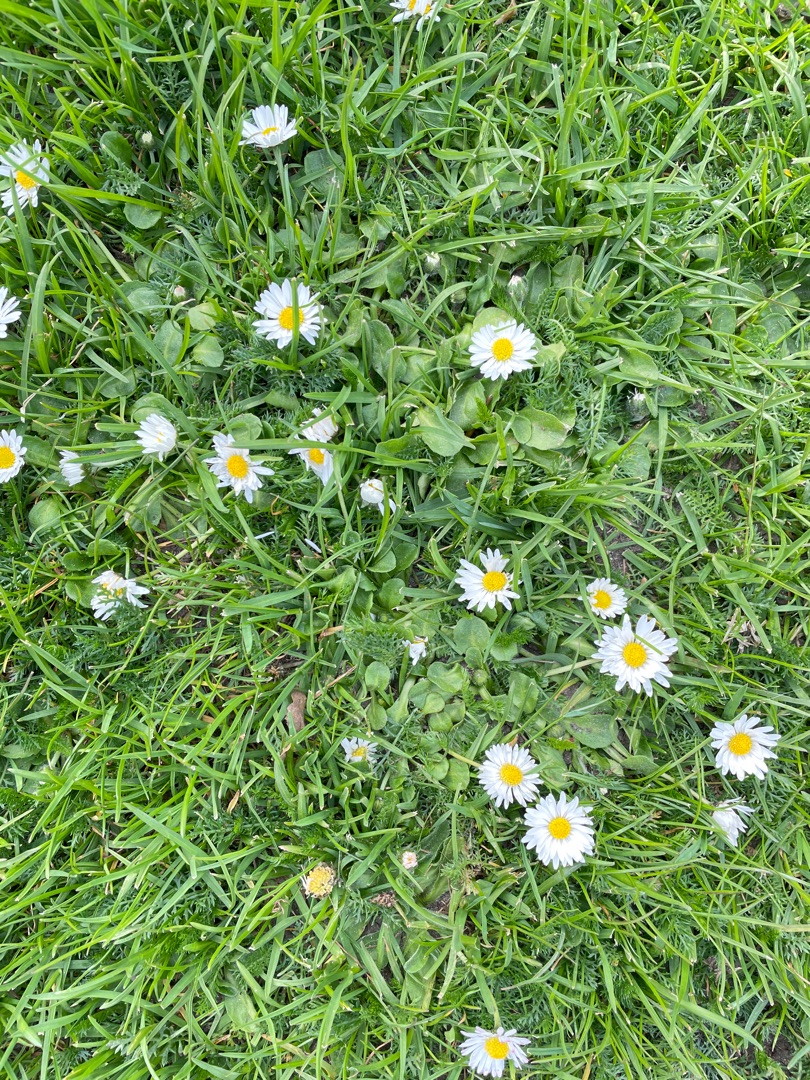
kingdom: Plantae
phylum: Tracheophyta
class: Magnoliopsida
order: Asterales
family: Asteraceae
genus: Bellis
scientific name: Bellis perennis
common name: Tusindfryd
